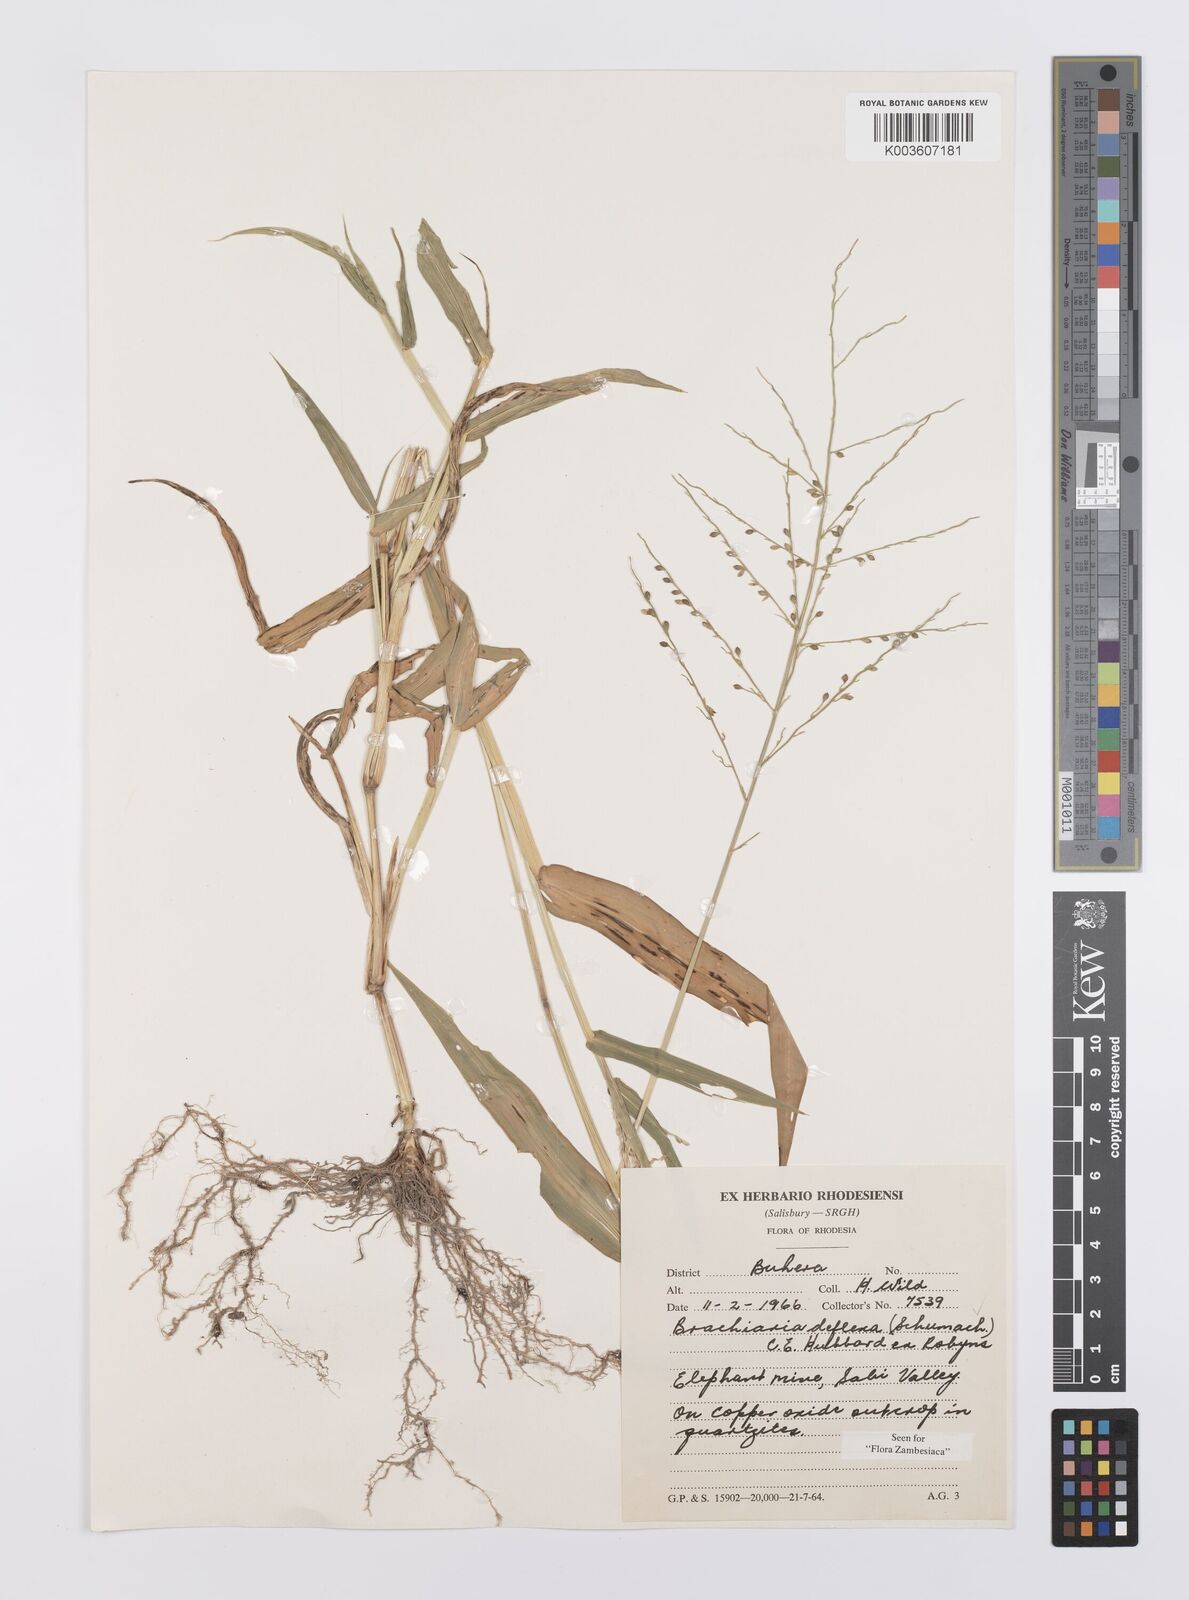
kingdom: Plantae
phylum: Tracheophyta
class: Liliopsida
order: Poales
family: Poaceae
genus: Urochloa
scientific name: Urochloa deflexa
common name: Guinea millet
